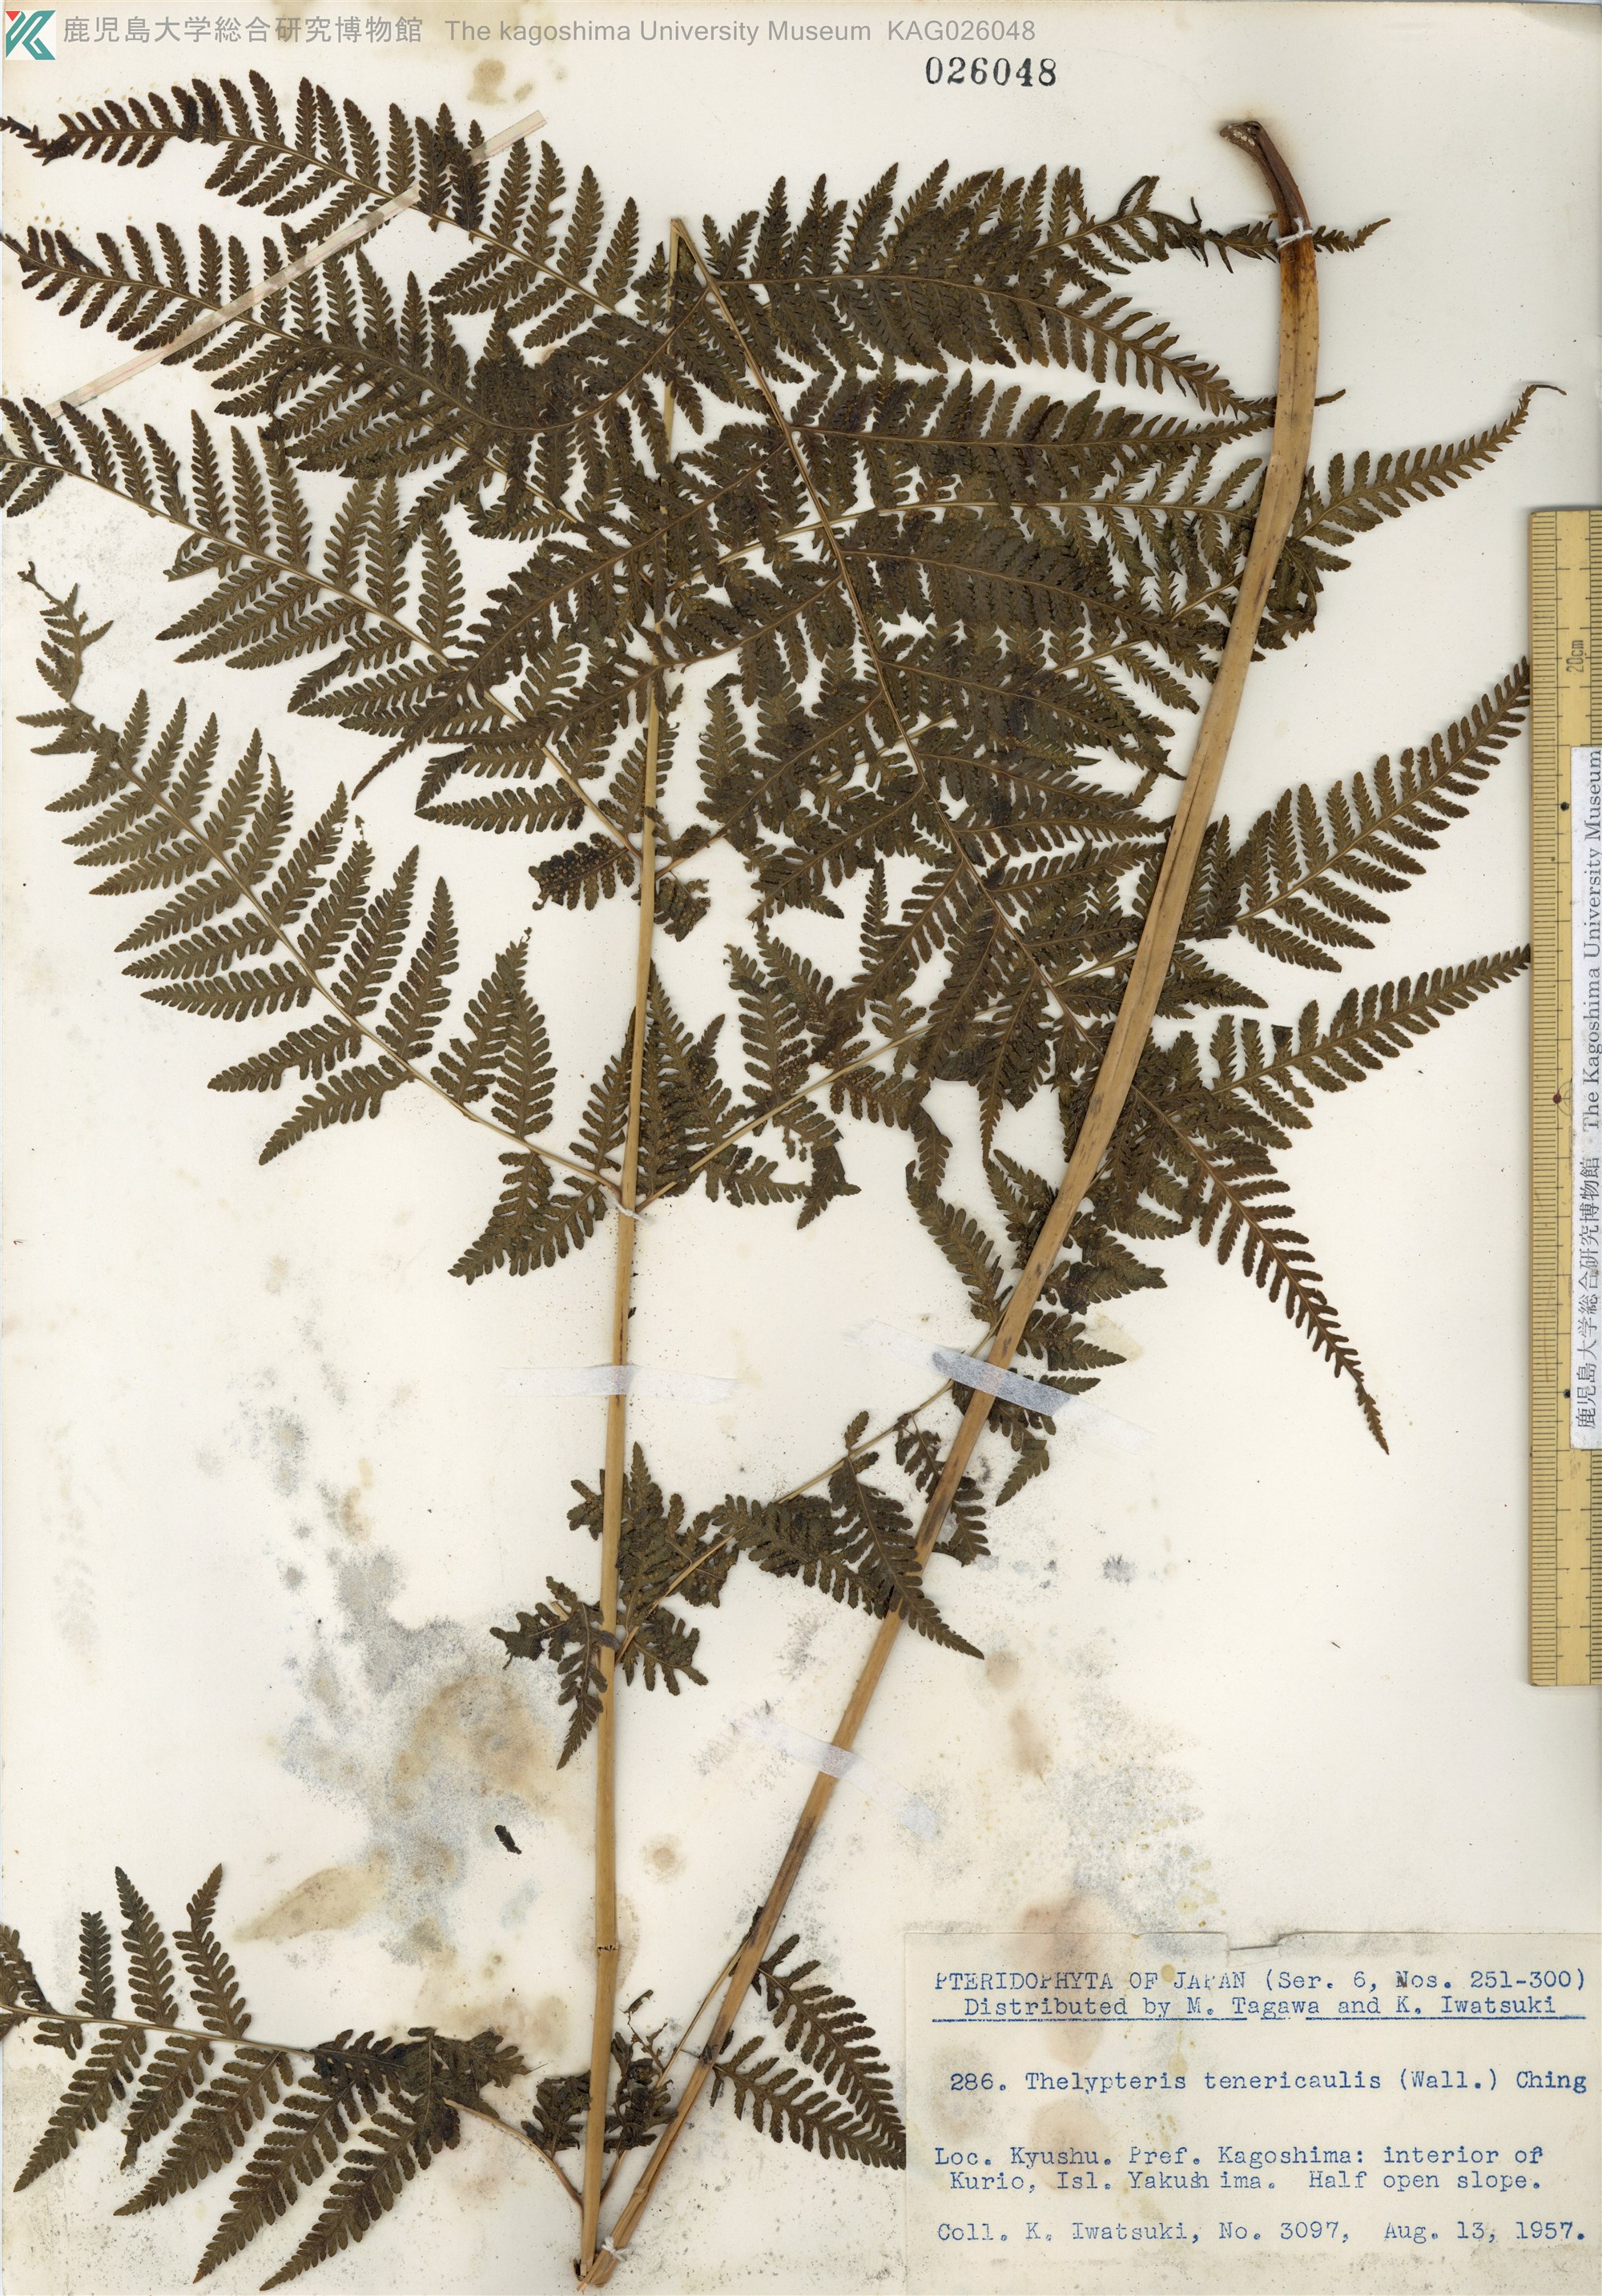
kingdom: Plantae
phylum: Tracheophyta
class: Polypodiopsida
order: Polypodiales
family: Thelypteridaceae
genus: Macrothelypteris
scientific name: Macrothelypteris oligophlebia
